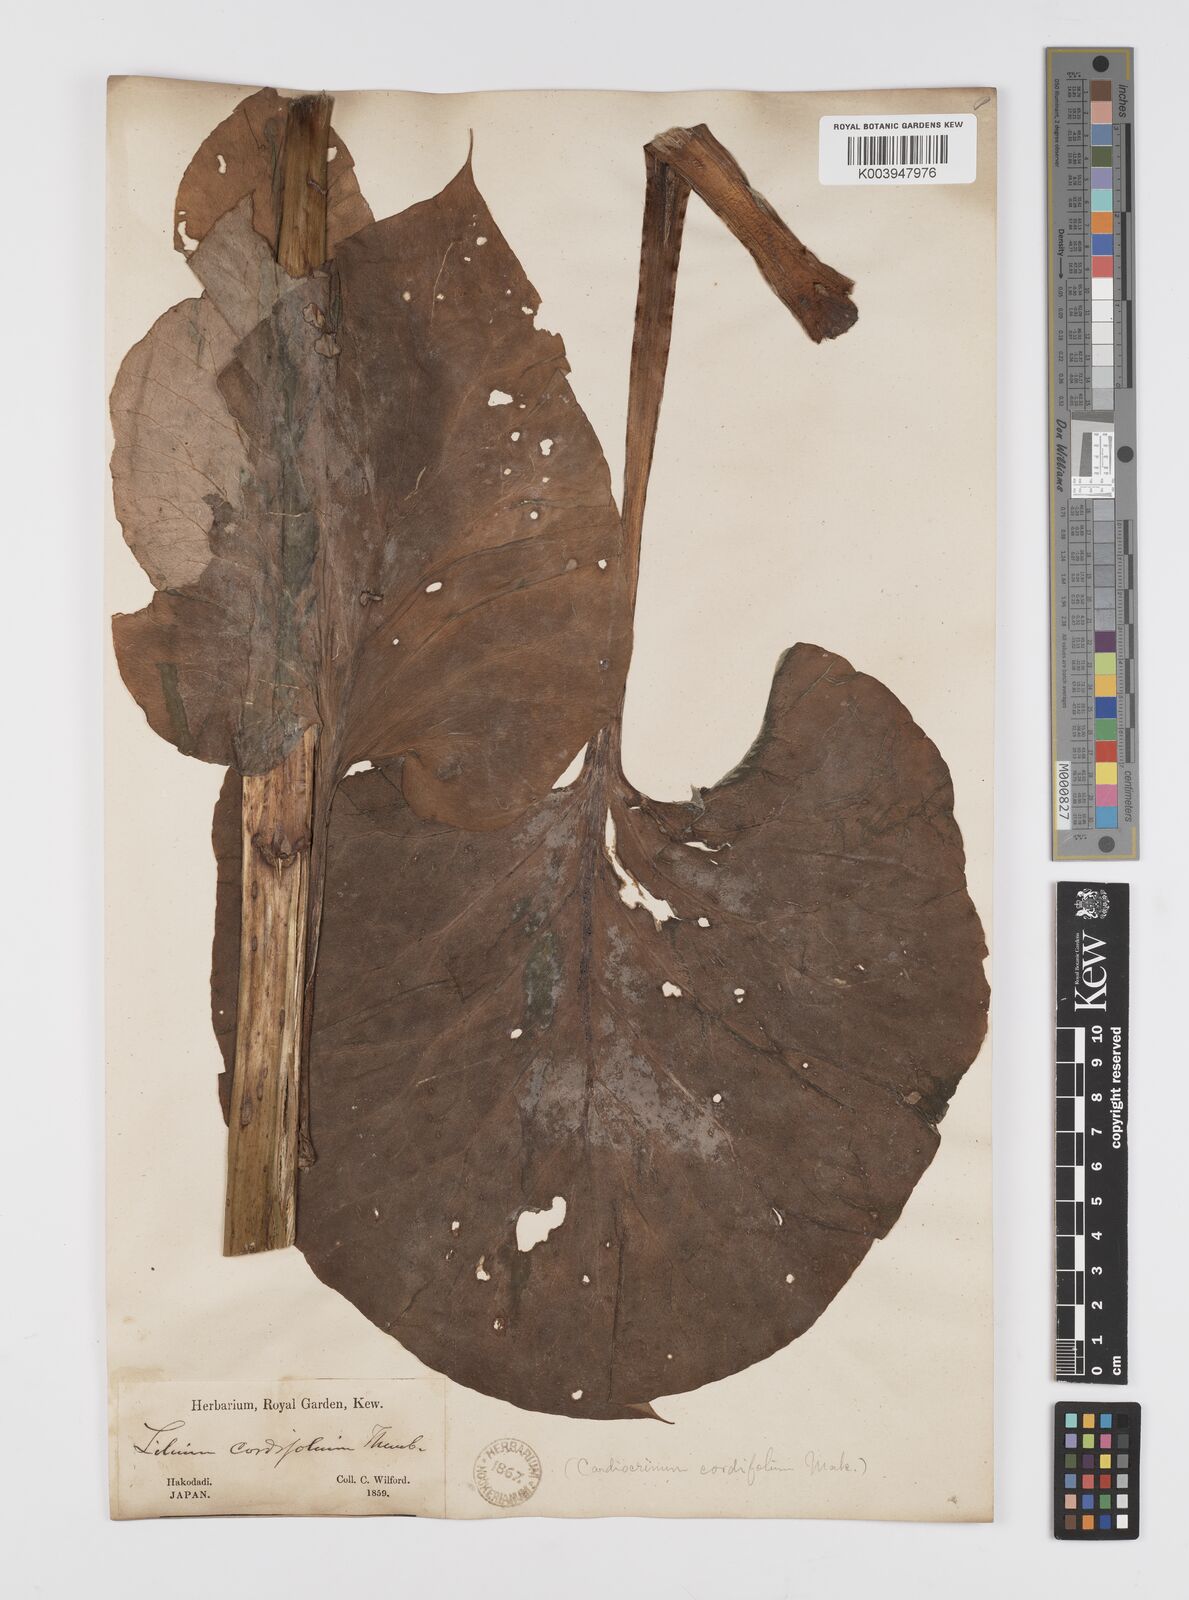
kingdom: Plantae
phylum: Tracheophyta
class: Liliopsida
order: Liliales
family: Liliaceae
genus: Cardiocrinum
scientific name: Cardiocrinum
